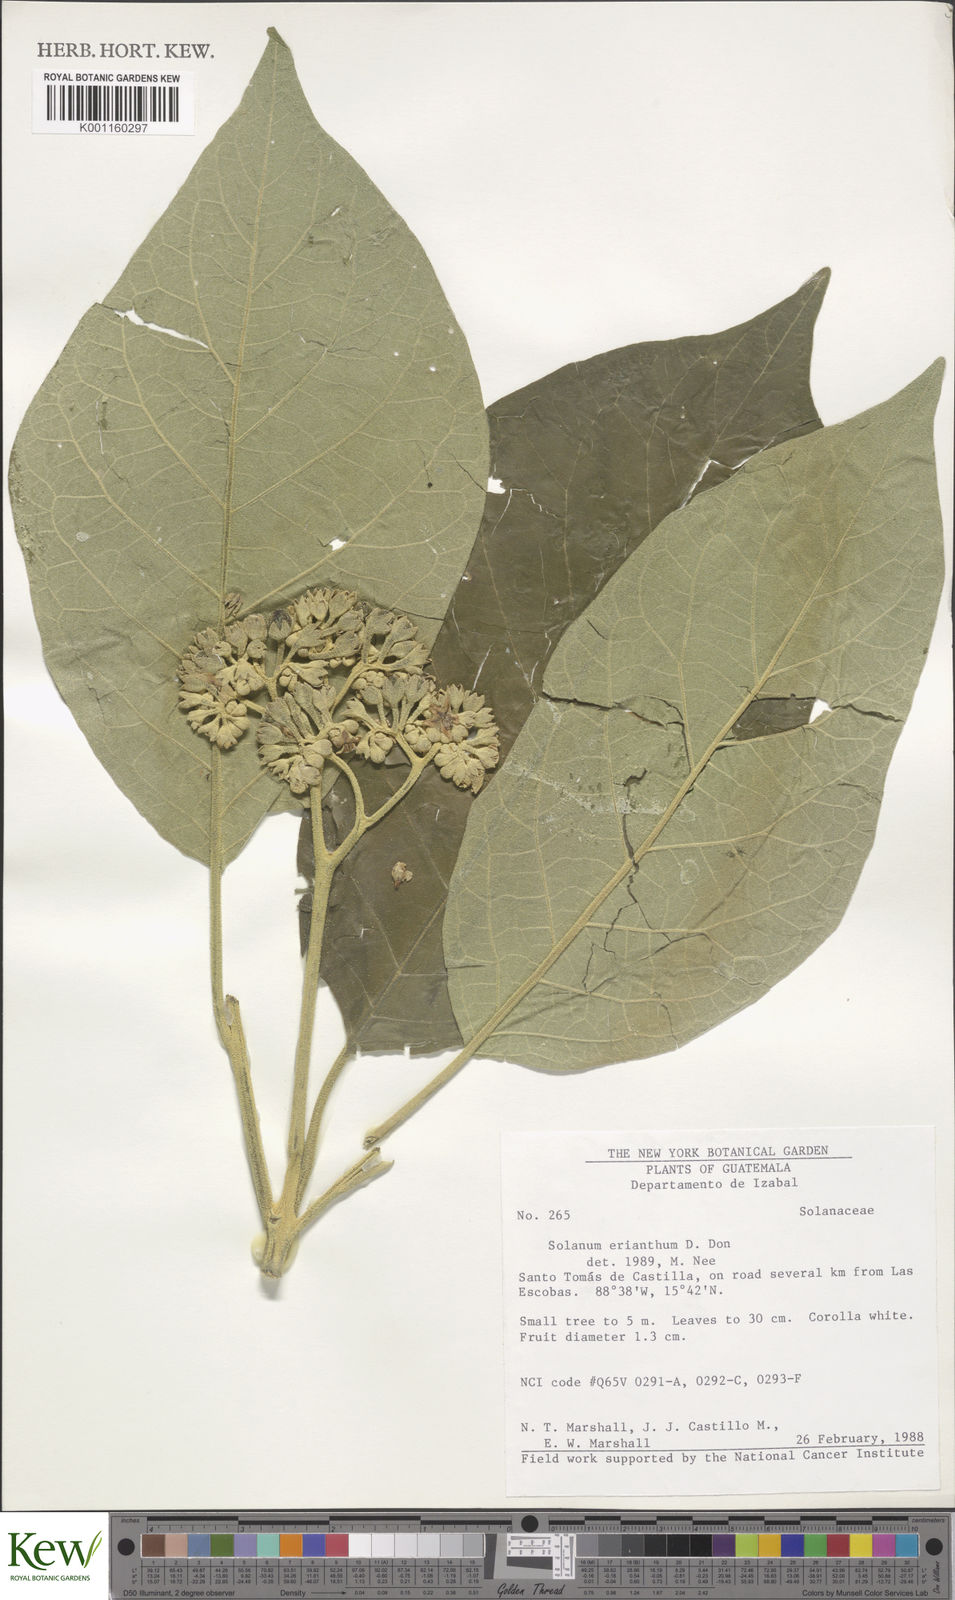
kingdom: Plantae
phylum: Tracheophyta
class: Magnoliopsida
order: Solanales
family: Solanaceae
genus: Solanum
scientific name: Solanum erianthum
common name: Tobacco-tree
